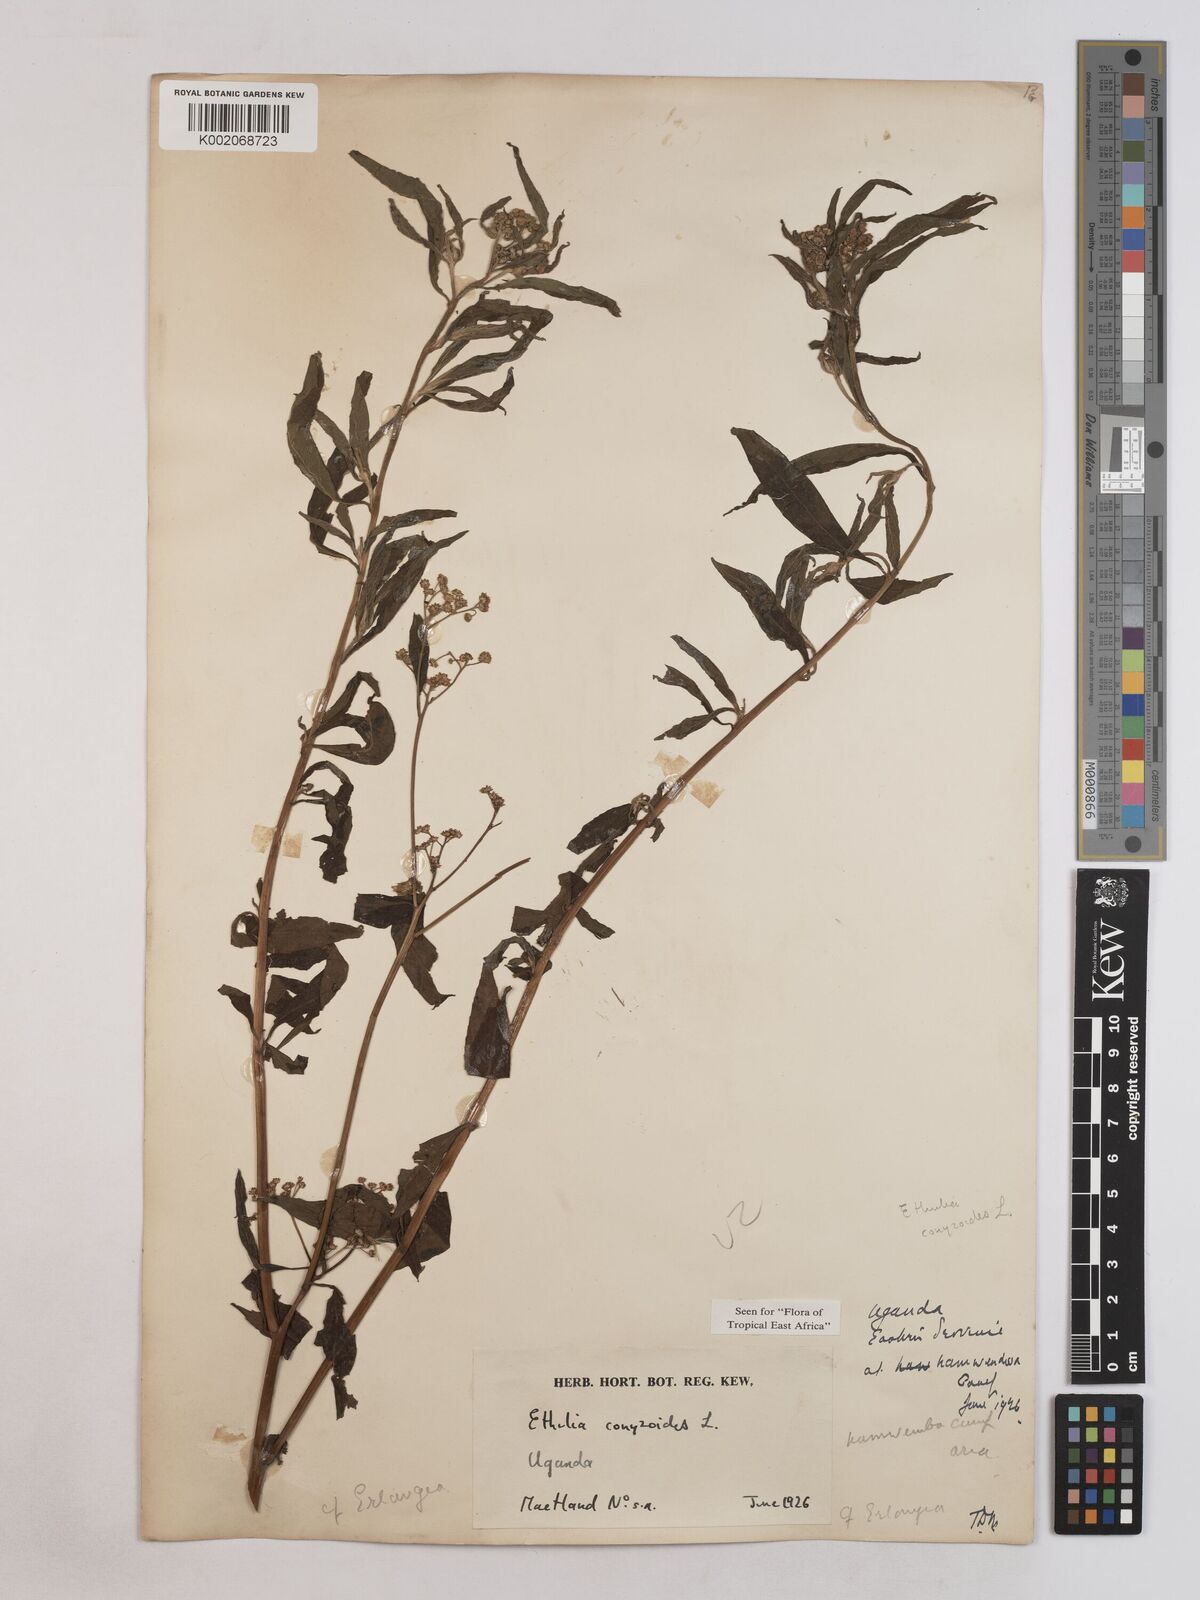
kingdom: Plantae
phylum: Tracheophyta
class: Magnoliopsida
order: Asterales
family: Asteraceae
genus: Ethulia
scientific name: Ethulia conyzoides
